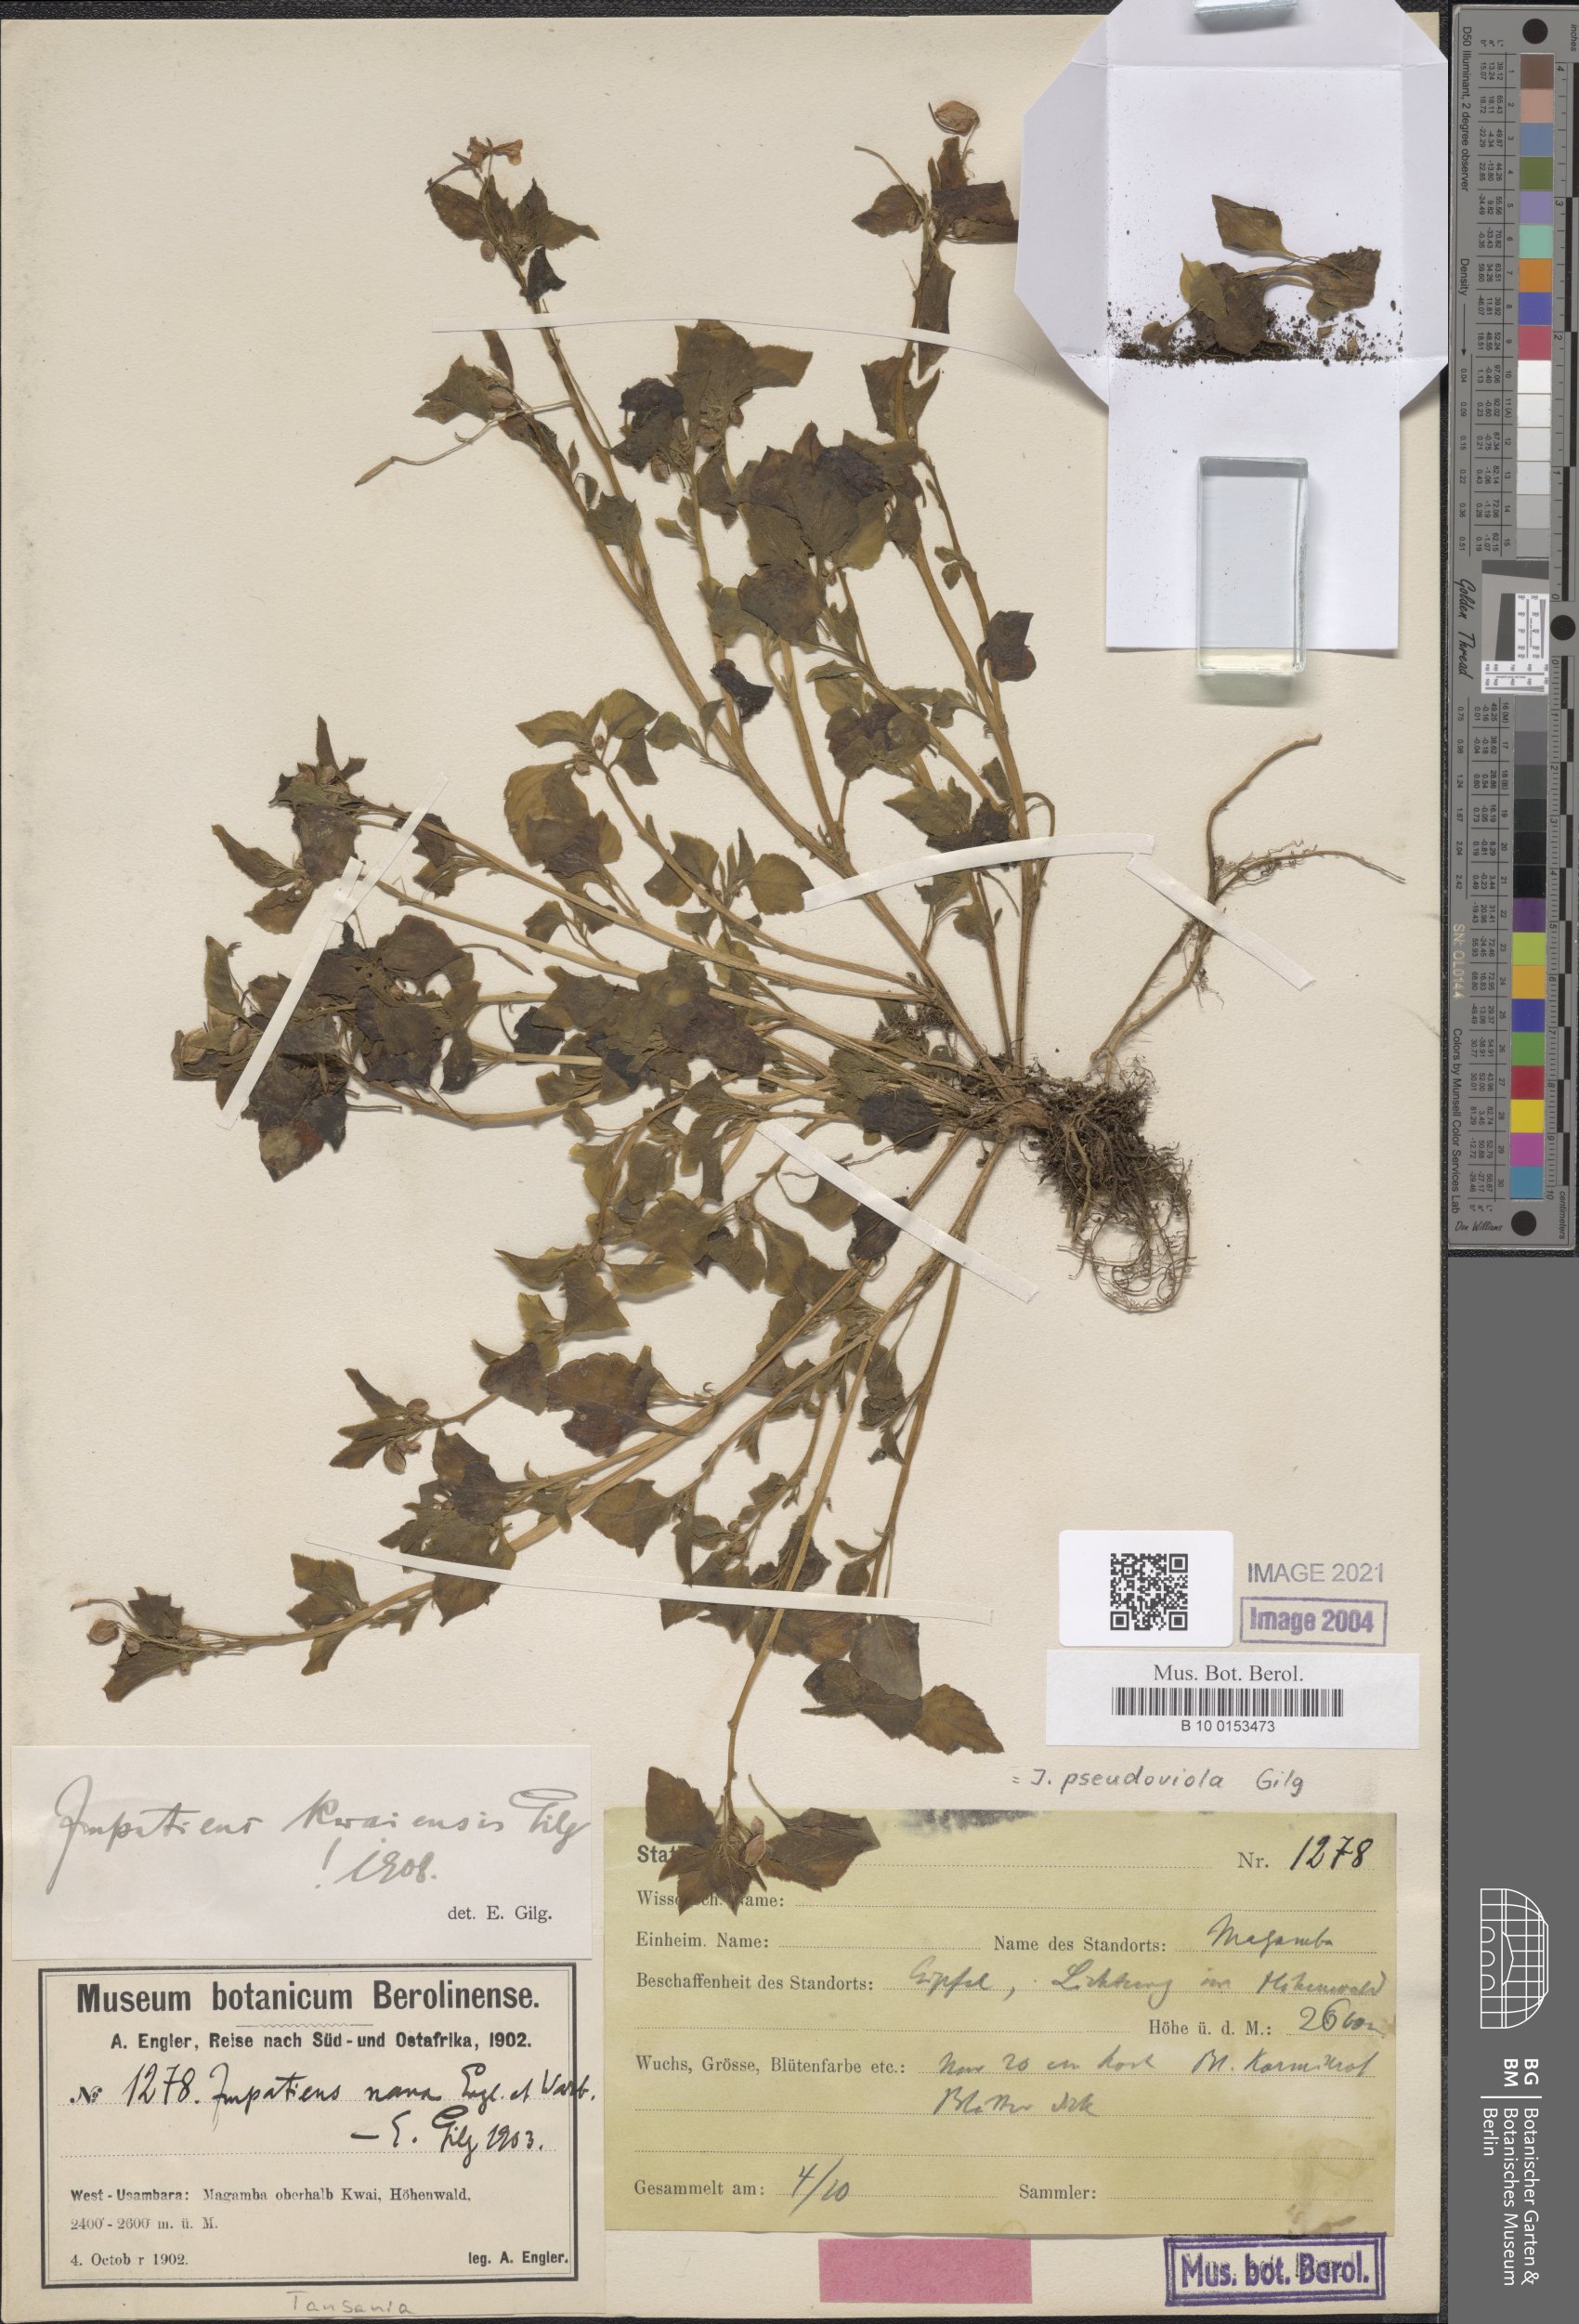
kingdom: Plantae
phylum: Tracheophyta
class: Magnoliopsida
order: Ericales
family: Balsaminaceae
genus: Impatiens
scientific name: Impatiens pseudoviola
